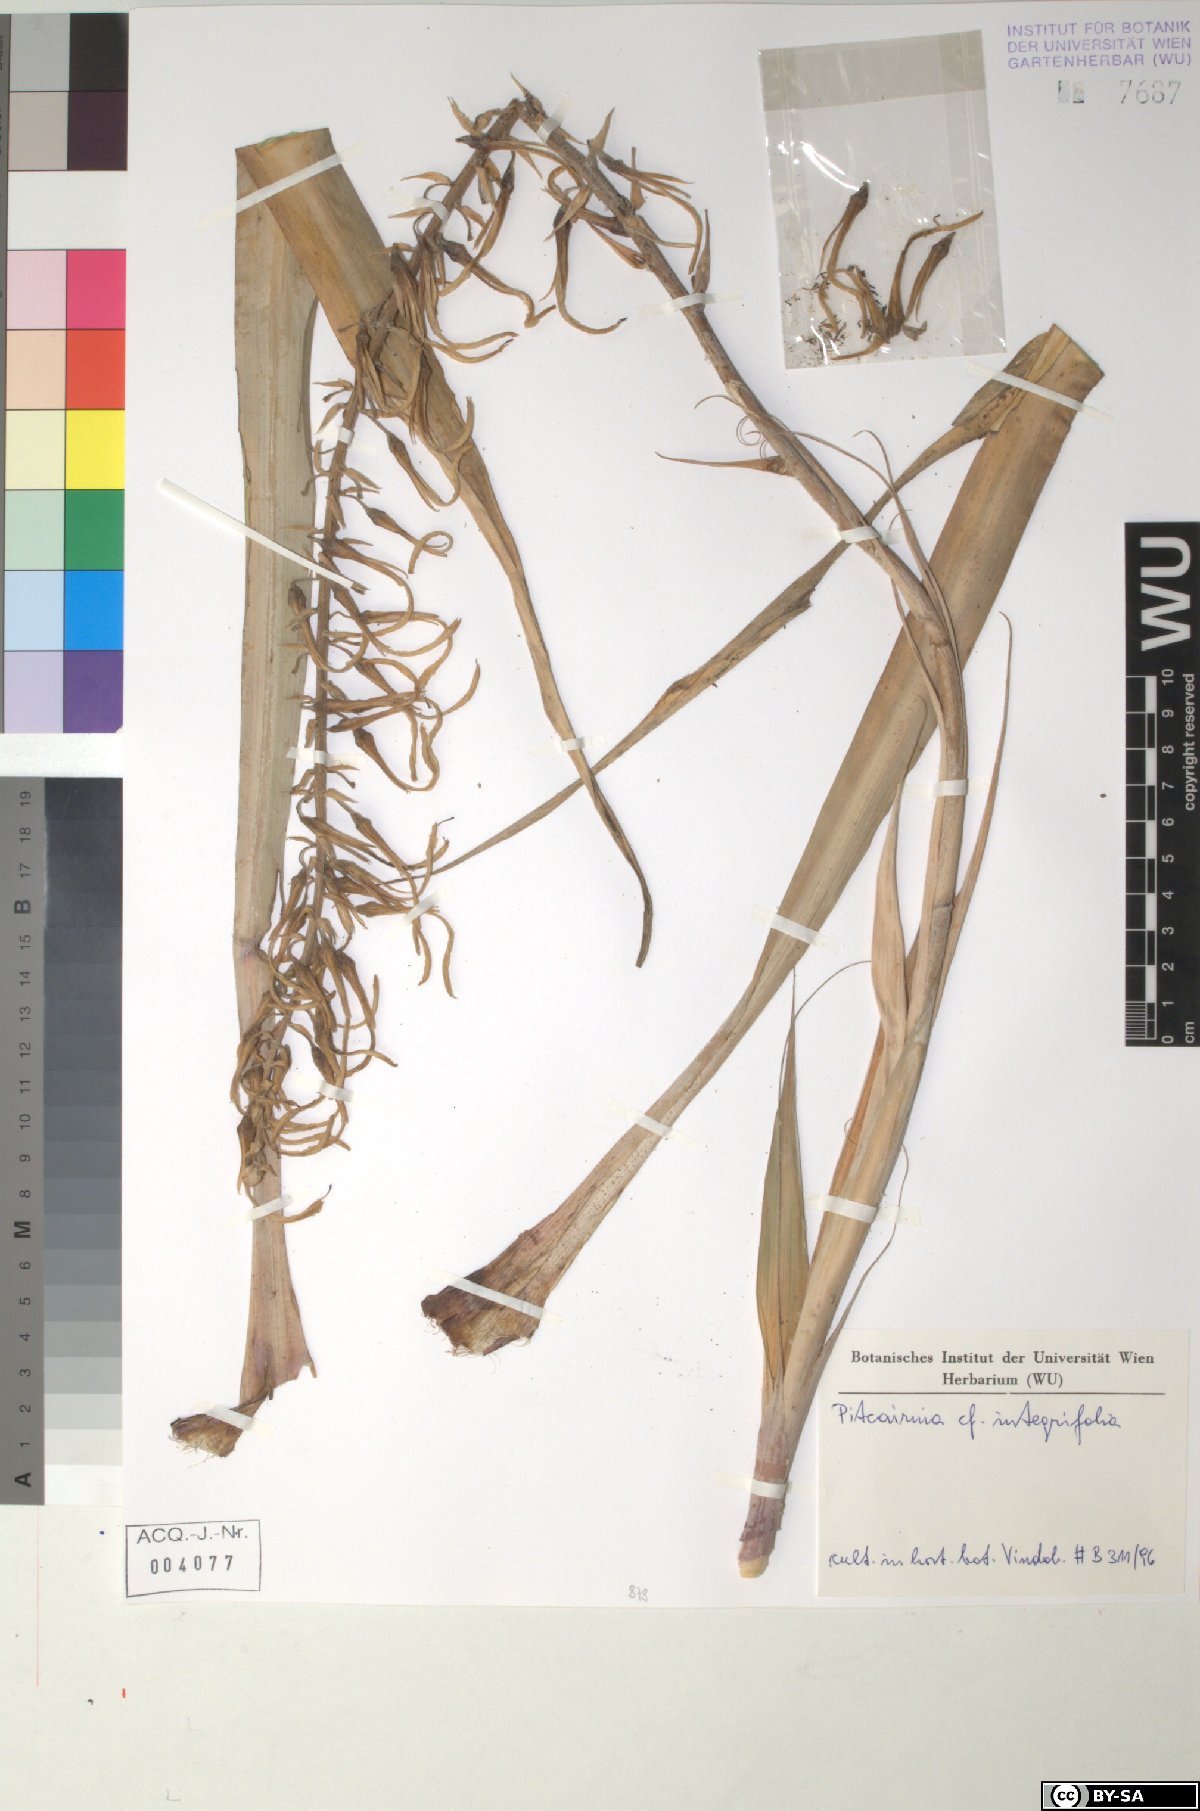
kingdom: Plantae
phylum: Tracheophyta
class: Liliopsida
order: Poales
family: Bromeliaceae
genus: Pitcairnia
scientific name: Pitcairnia integrifolia
